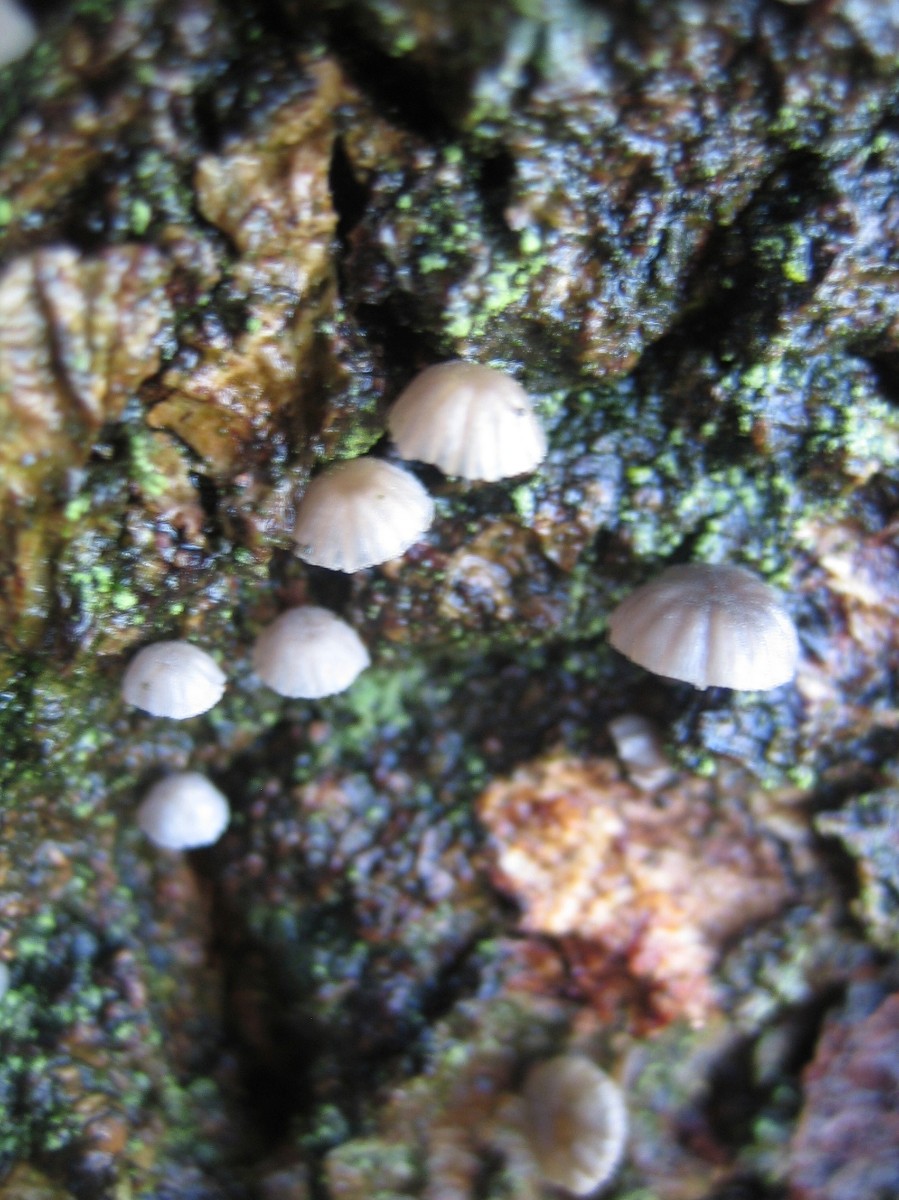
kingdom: Fungi
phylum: Basidiomycota
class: Agaricomycetes
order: Agaricales
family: Mycenaceae
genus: Mycena
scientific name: Mycena pseudocorticola
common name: gråblå bark-huesvamp
